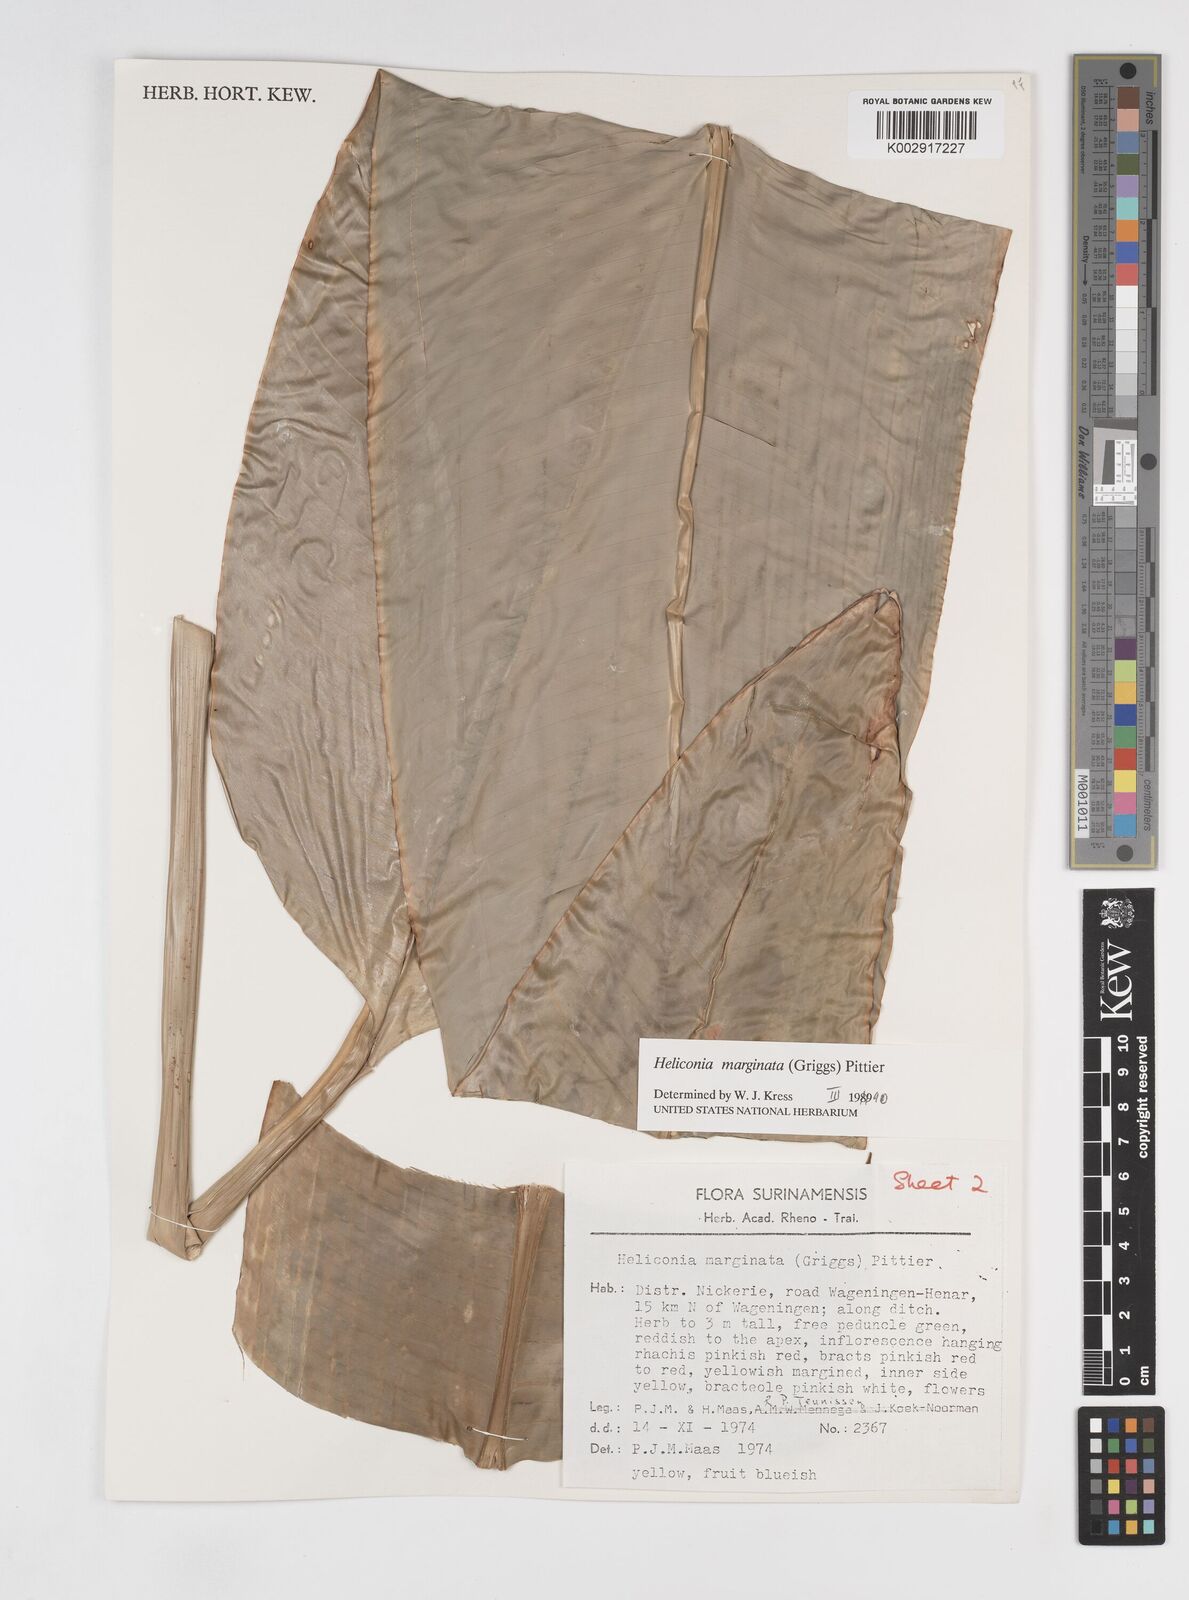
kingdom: Plantae
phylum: Tracheophyta
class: Liliopsida
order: Zingiberales
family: Heliconiaceae
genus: Heliconia
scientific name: Heliconia marginata
